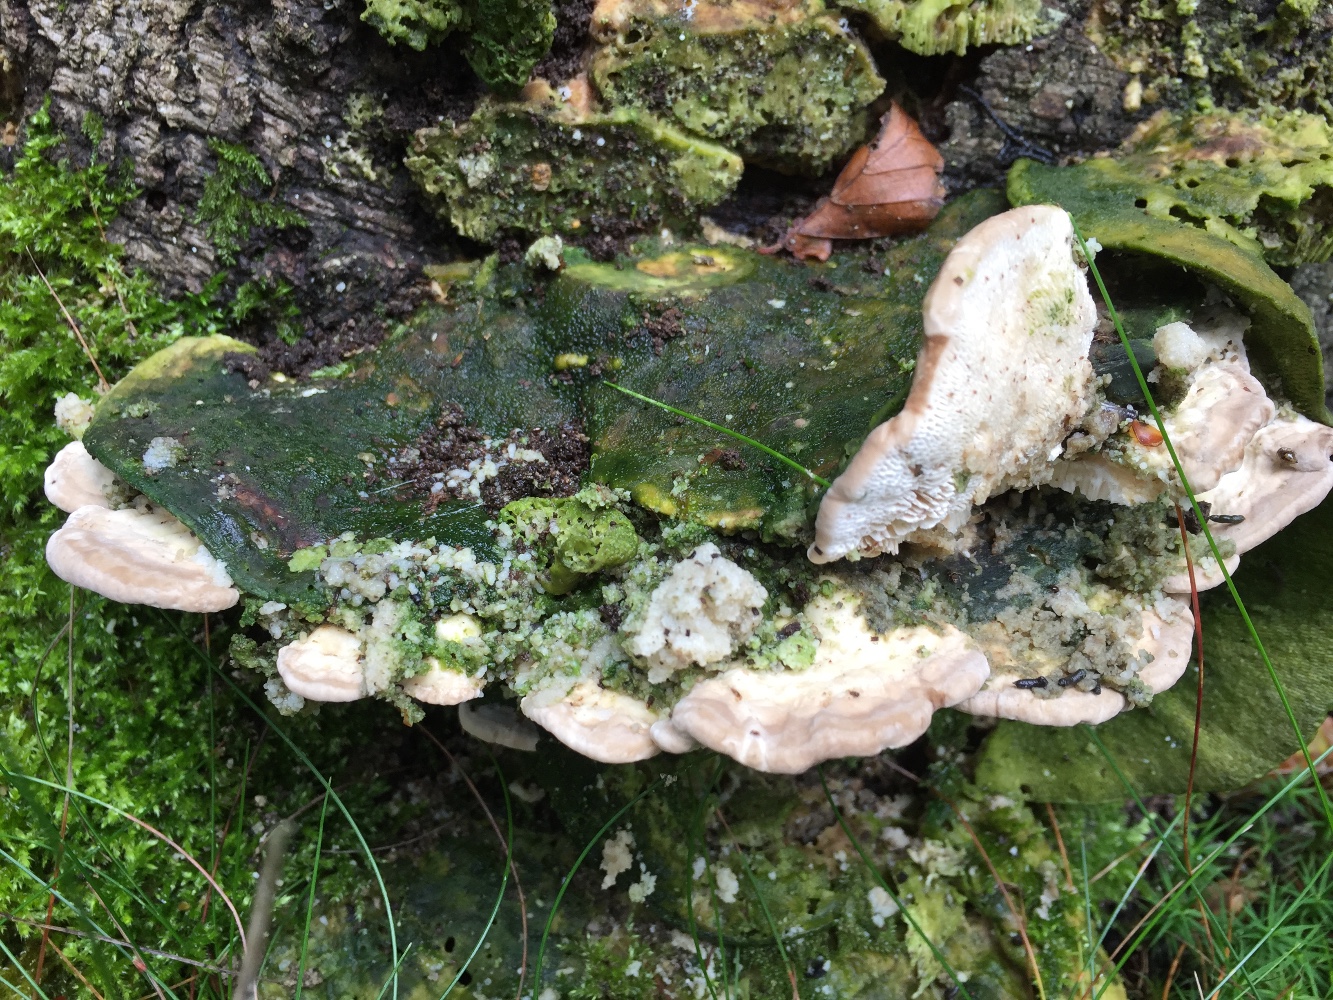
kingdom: Fungi
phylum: Basidiomycota
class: Agaricomycetes
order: Polyporales
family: Polyporaceae
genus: Trametes
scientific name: Trametes gibbosa
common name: puklet læderporesvamp
